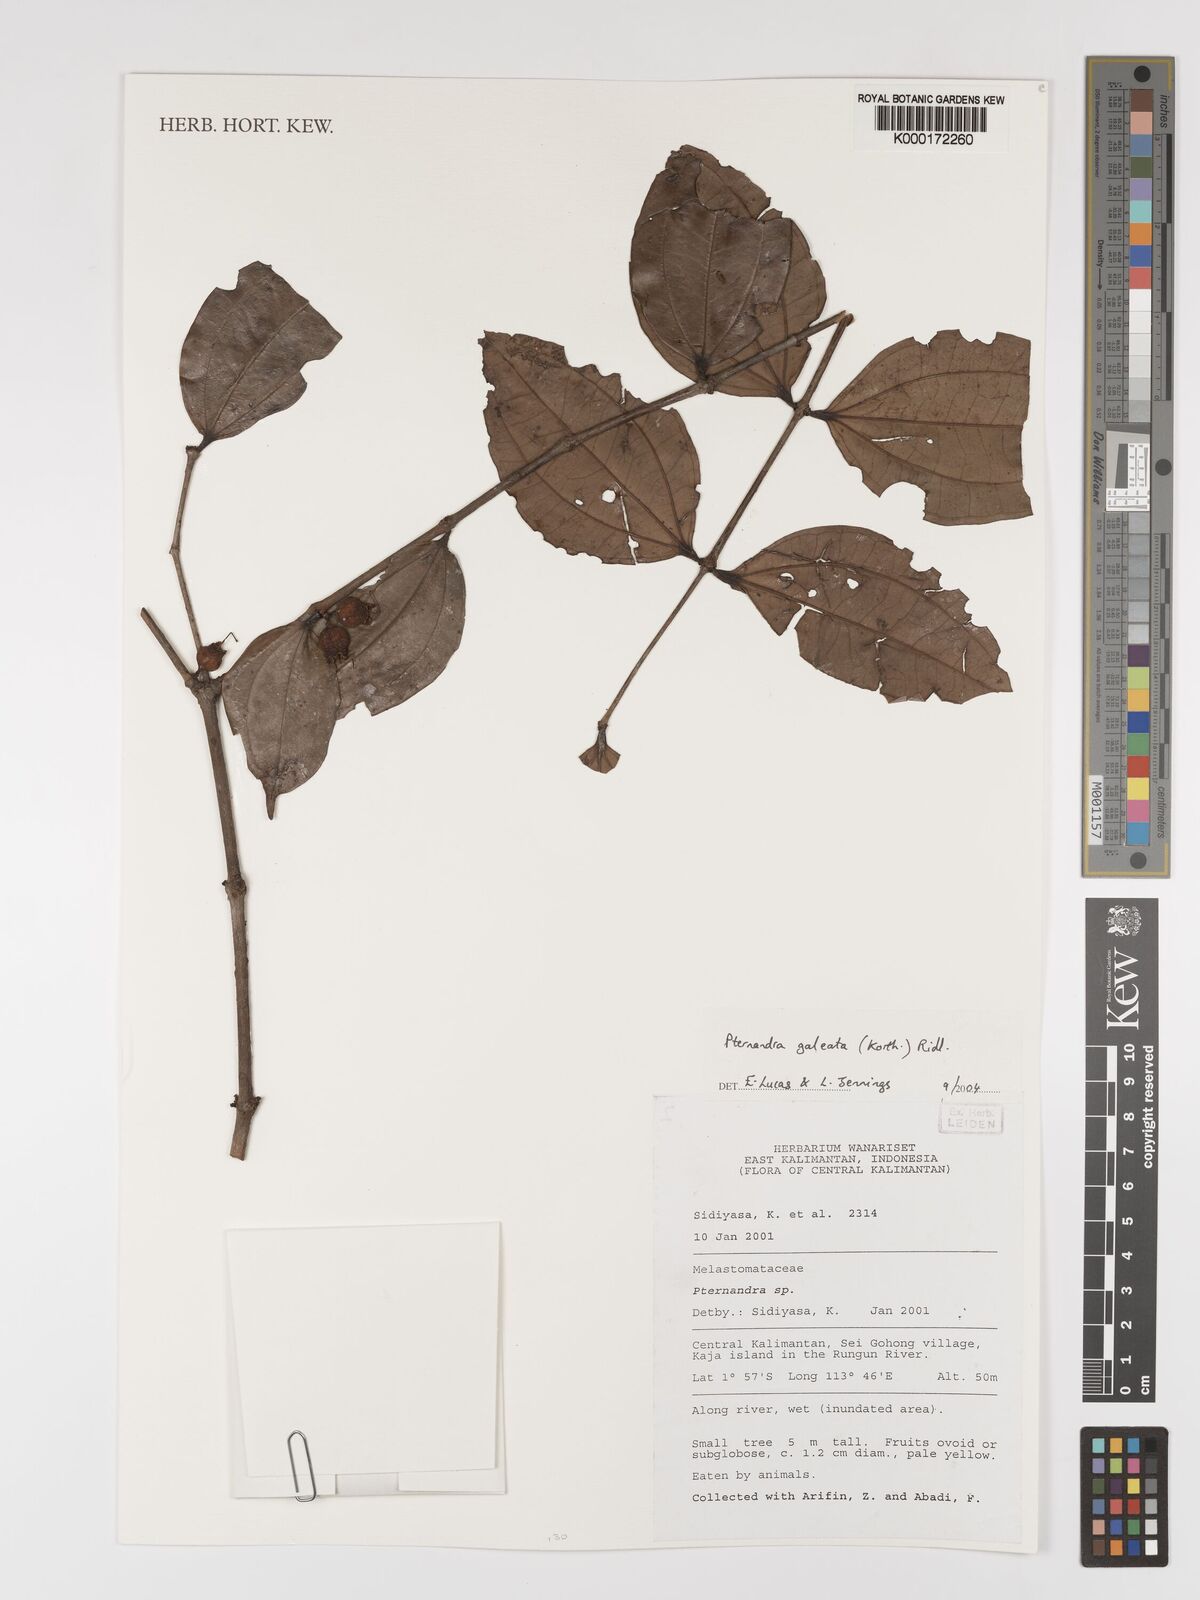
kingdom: Plantae
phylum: Tracheophyta
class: Magnoliopsida
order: Myrtales
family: Melastomataceae
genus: Pternandra
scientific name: Pternandra galeata
